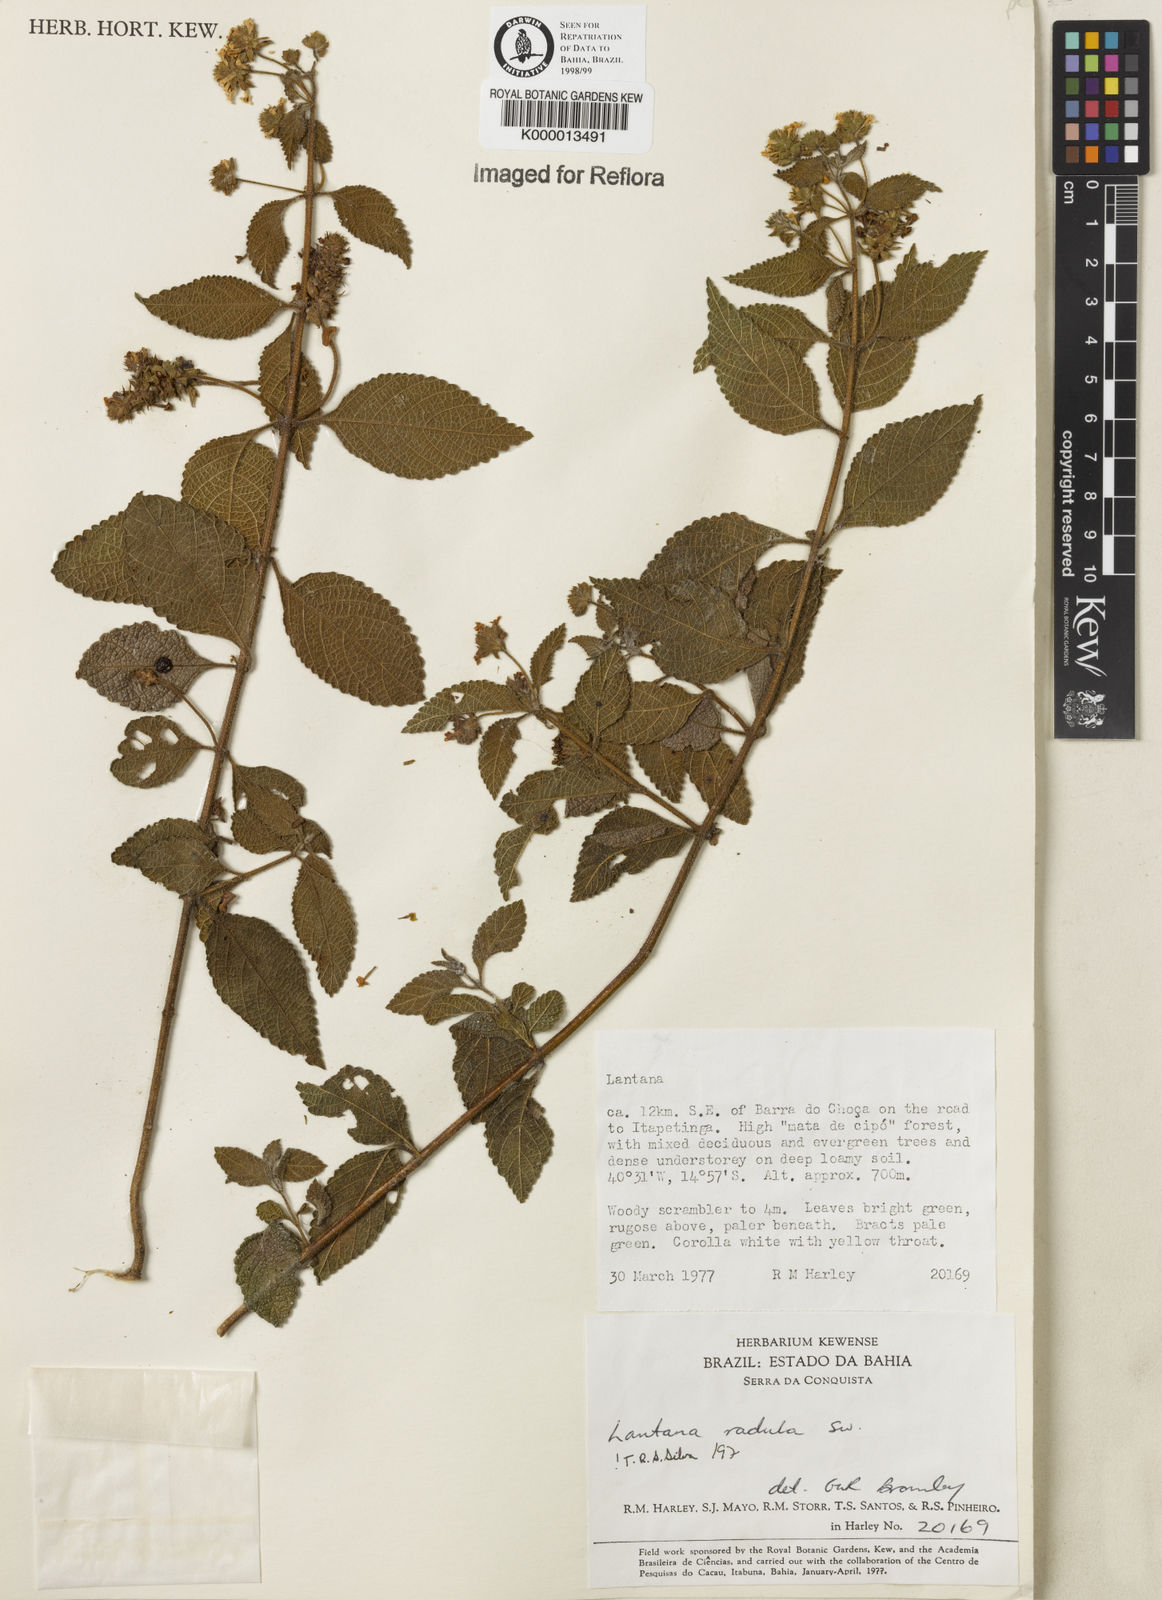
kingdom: Plantae
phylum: Tracheophyta
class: Magnoliopsida
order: Lamiales
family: Verbenaceae
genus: Lantana
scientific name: Lantana radula
